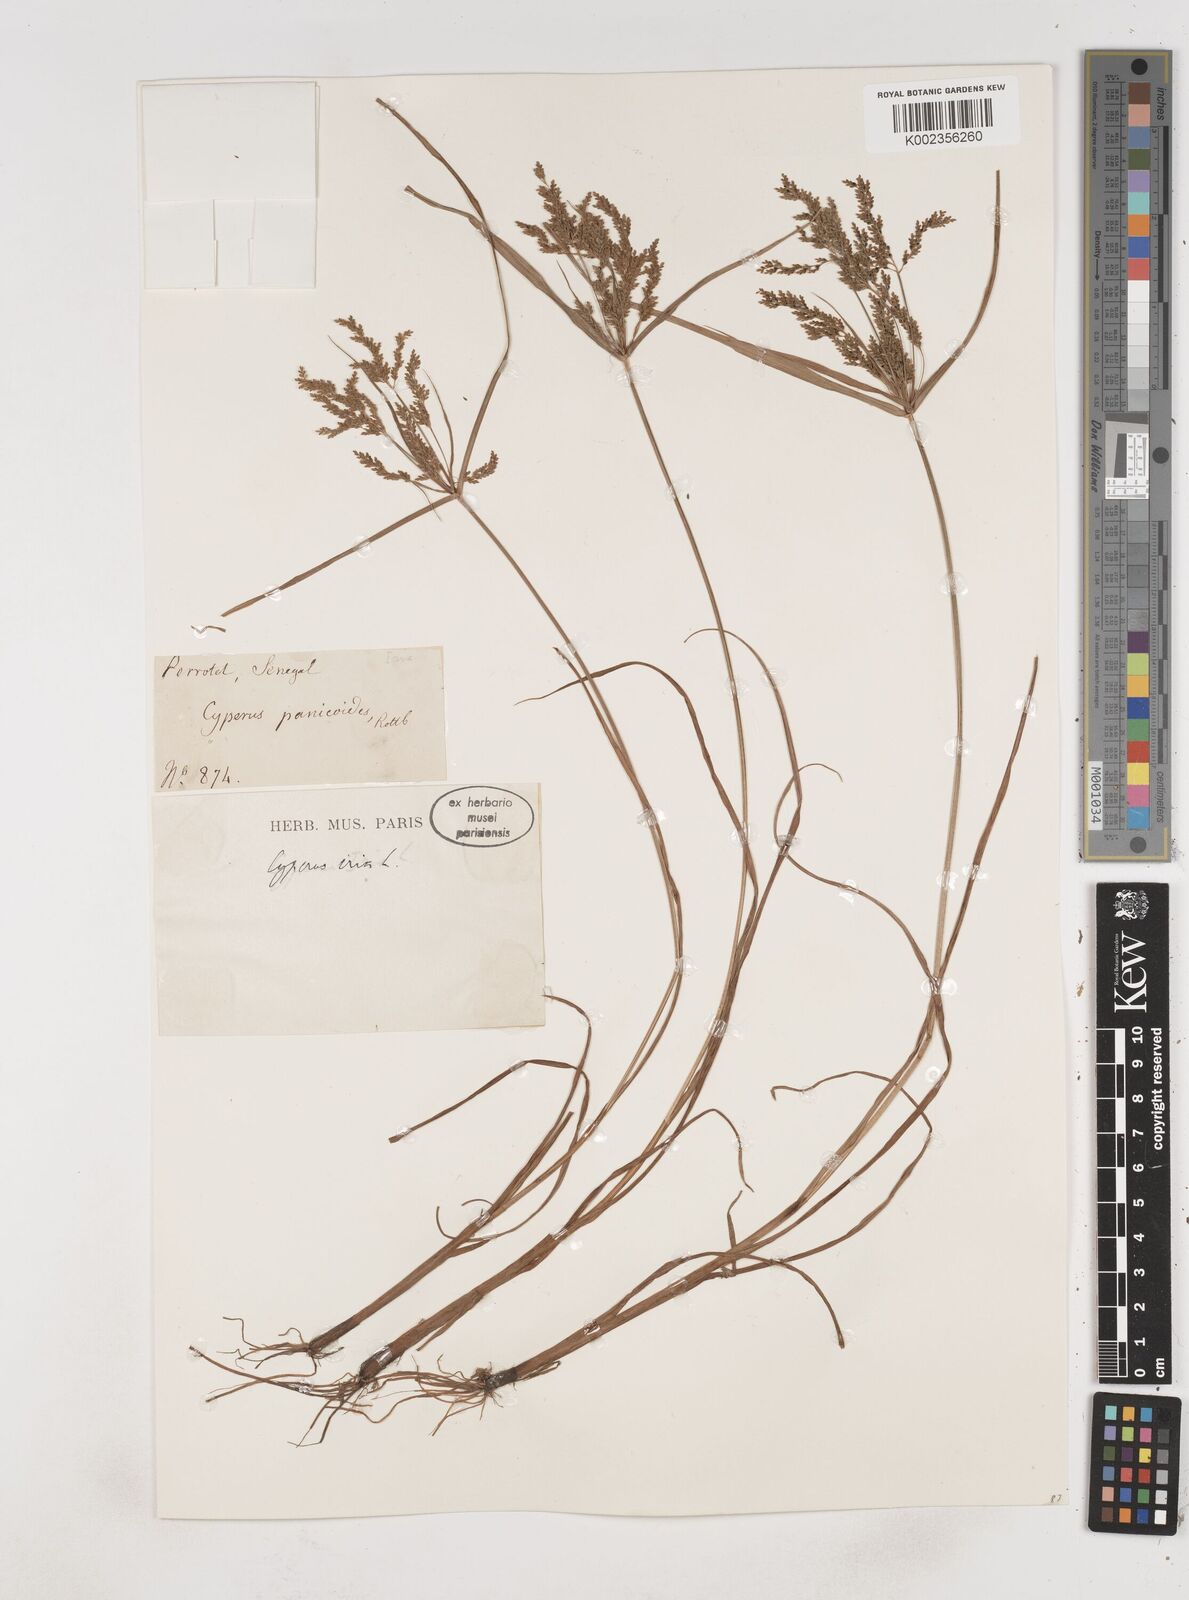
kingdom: Plantae
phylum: Tracheophyta
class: Liliopsida
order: Poales
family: Cyperaceae
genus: Cyperus
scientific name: Cyperus iria
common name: Ricefield flatsedge
